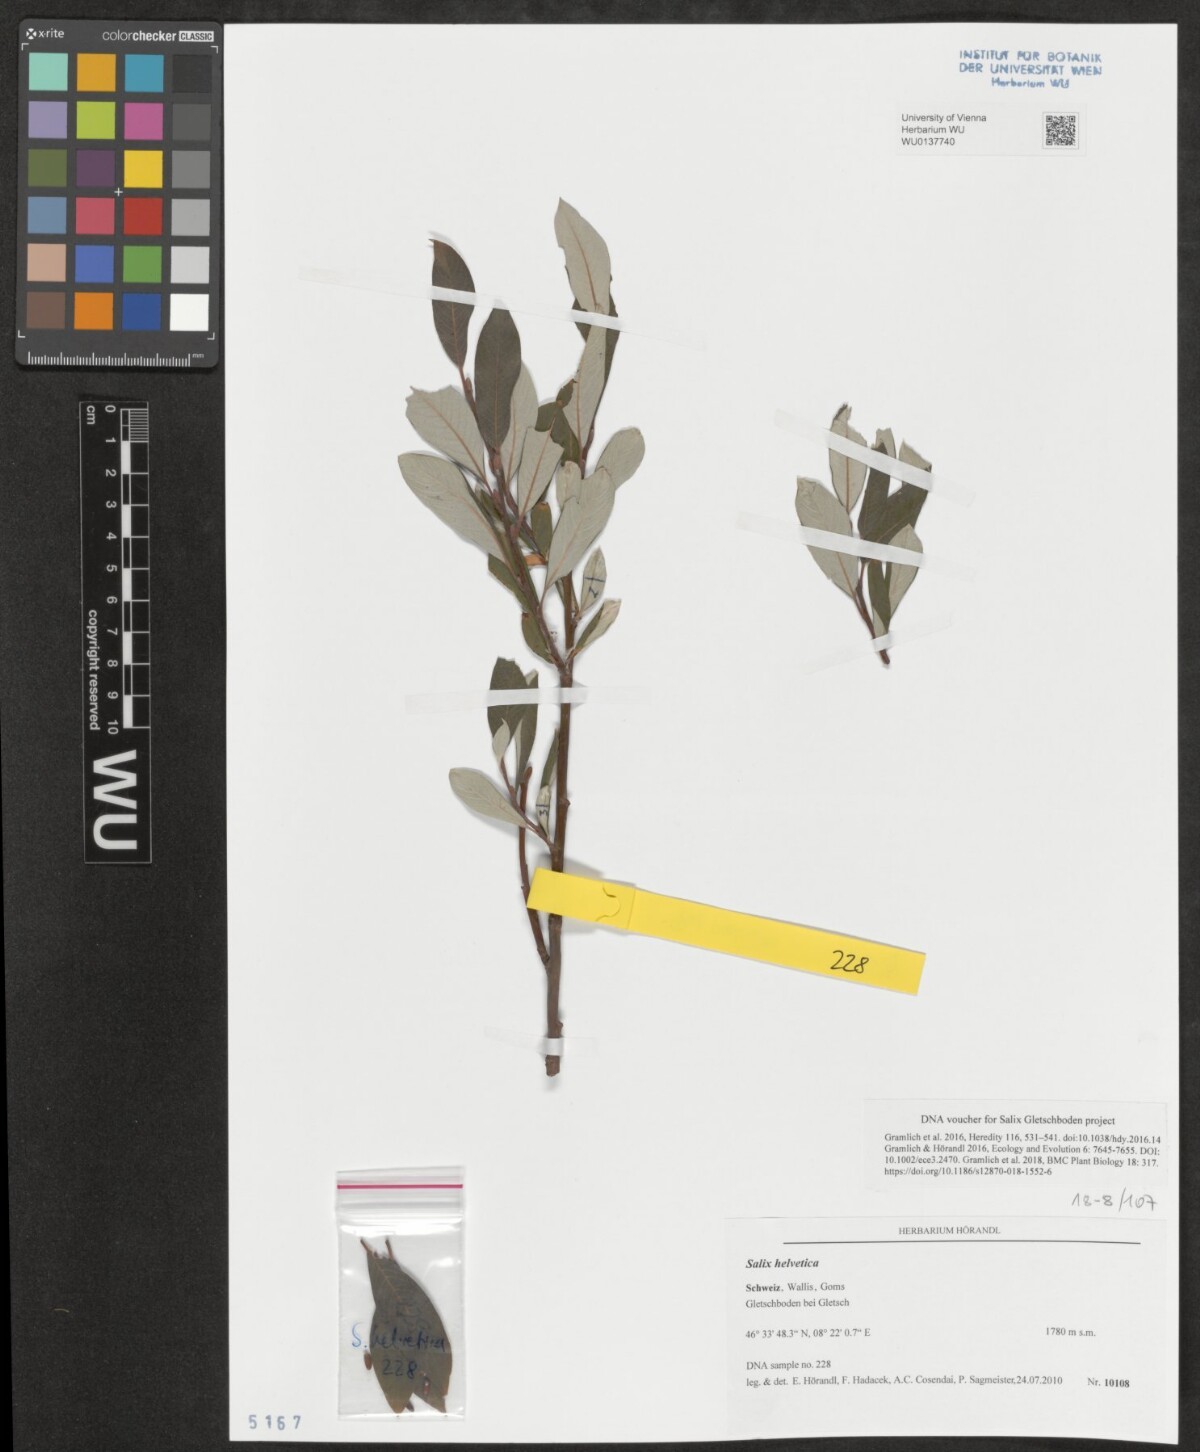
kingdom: Plantae
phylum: Tracheophyta
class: Magnoliopsida
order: Malpighiales
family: Salicaceae
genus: Salix
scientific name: Salix helvetica
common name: Swiss willow
